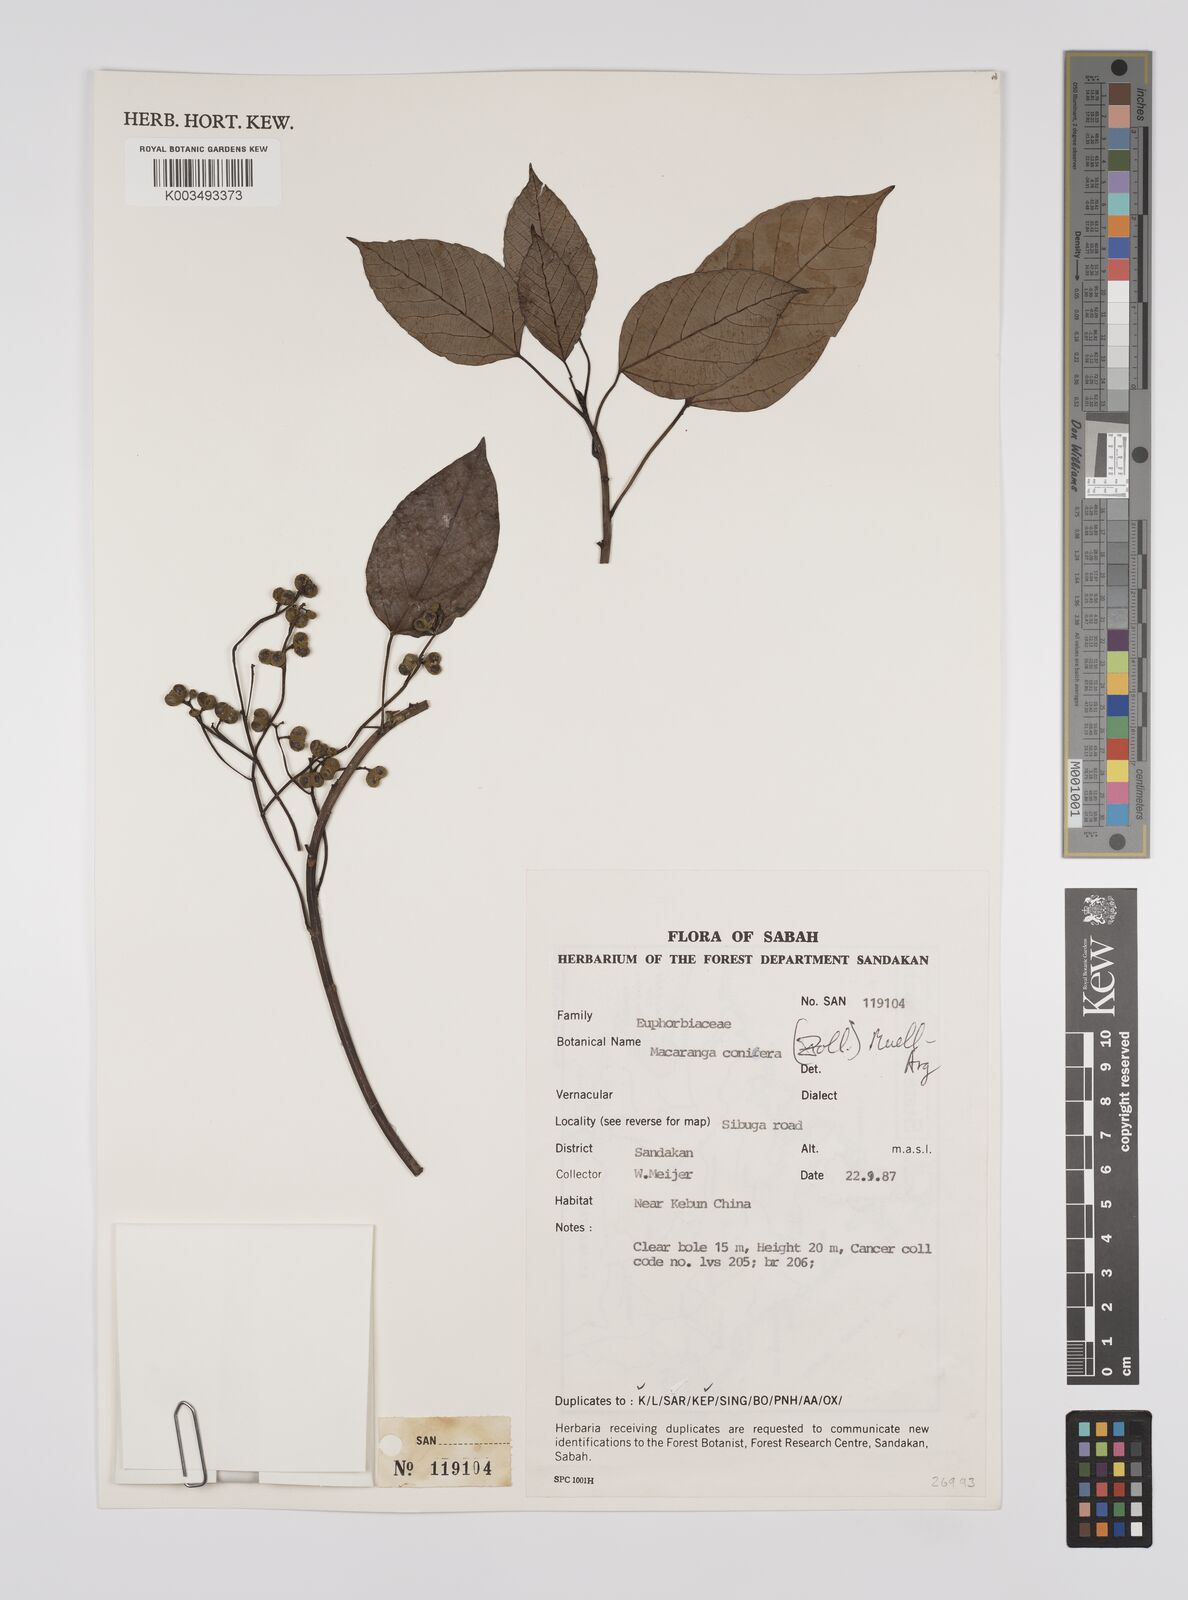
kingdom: Plantae
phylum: Tracheophyta
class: Magnoliopsida
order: Malpighiales
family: Euphorbiaceae
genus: Macaranga
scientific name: Macaranga conifera
